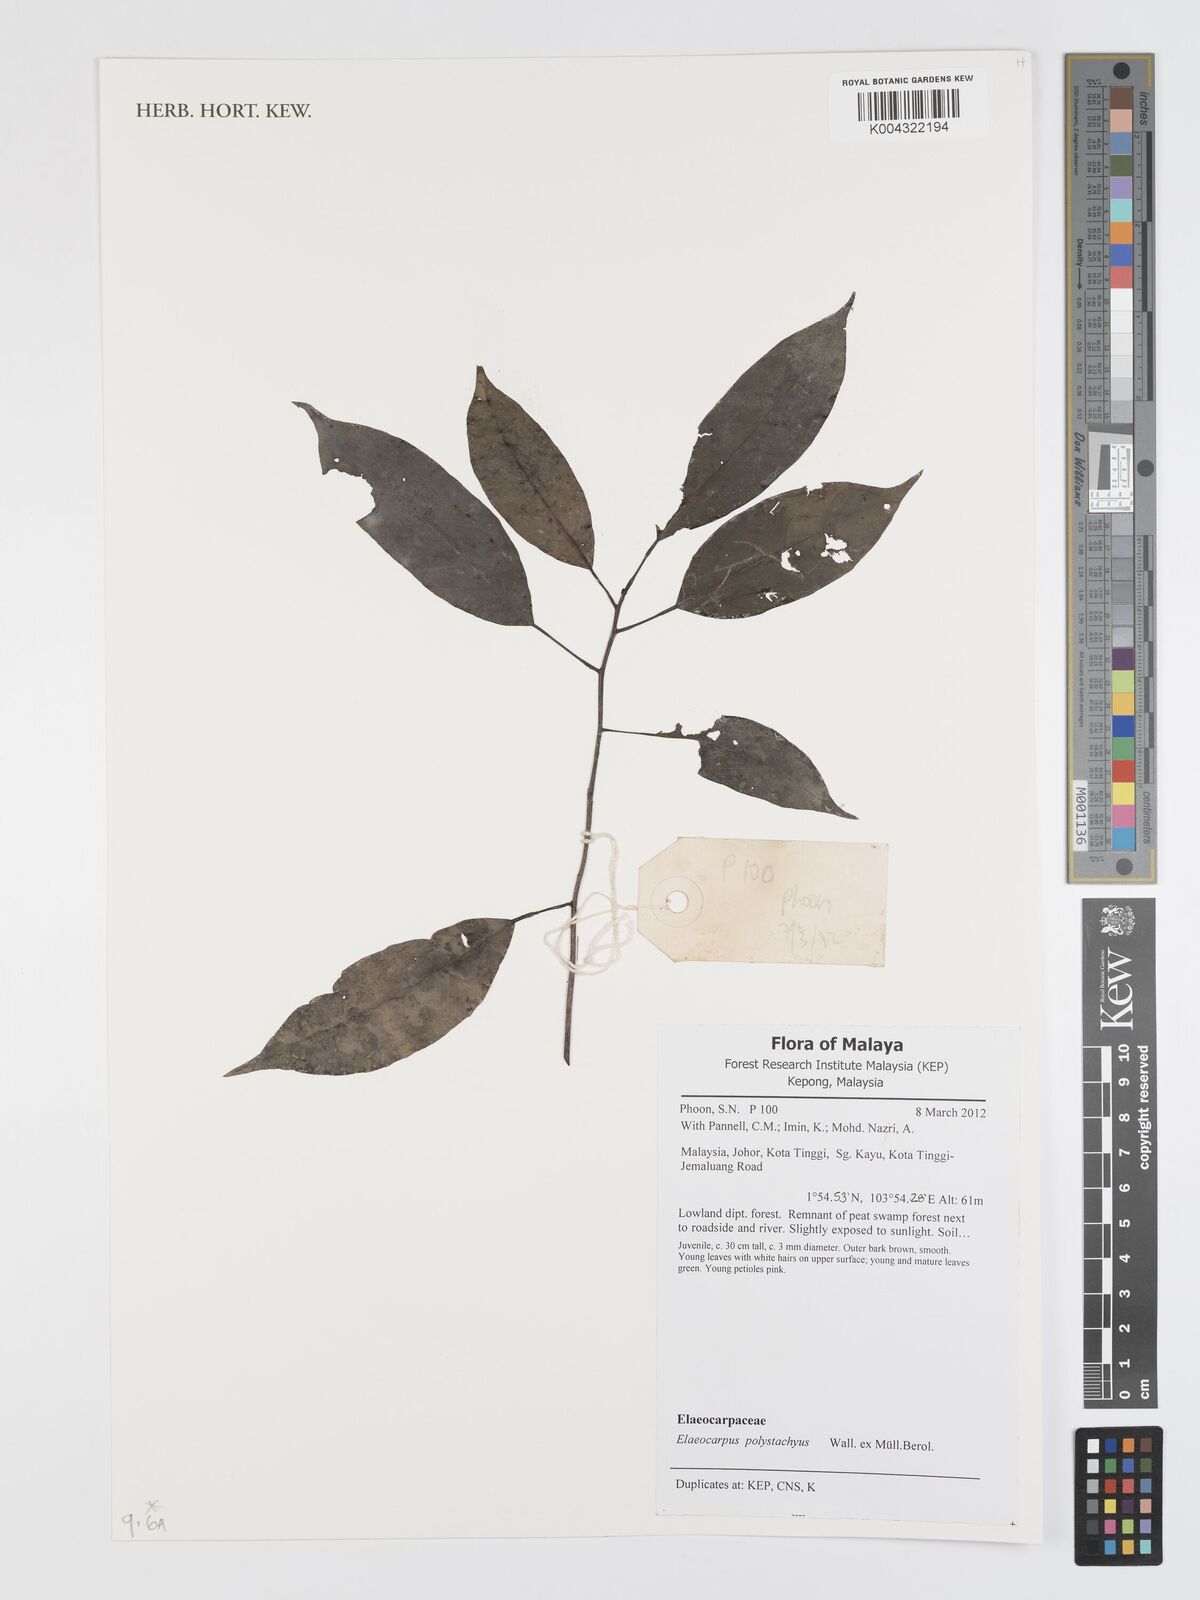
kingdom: Plantae
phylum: Tracheophyta
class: Magnoliopsida
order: Oxalidales
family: Elaeocarpaceae
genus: Elaeocarpus
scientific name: Elaeocarpus polystachyus
